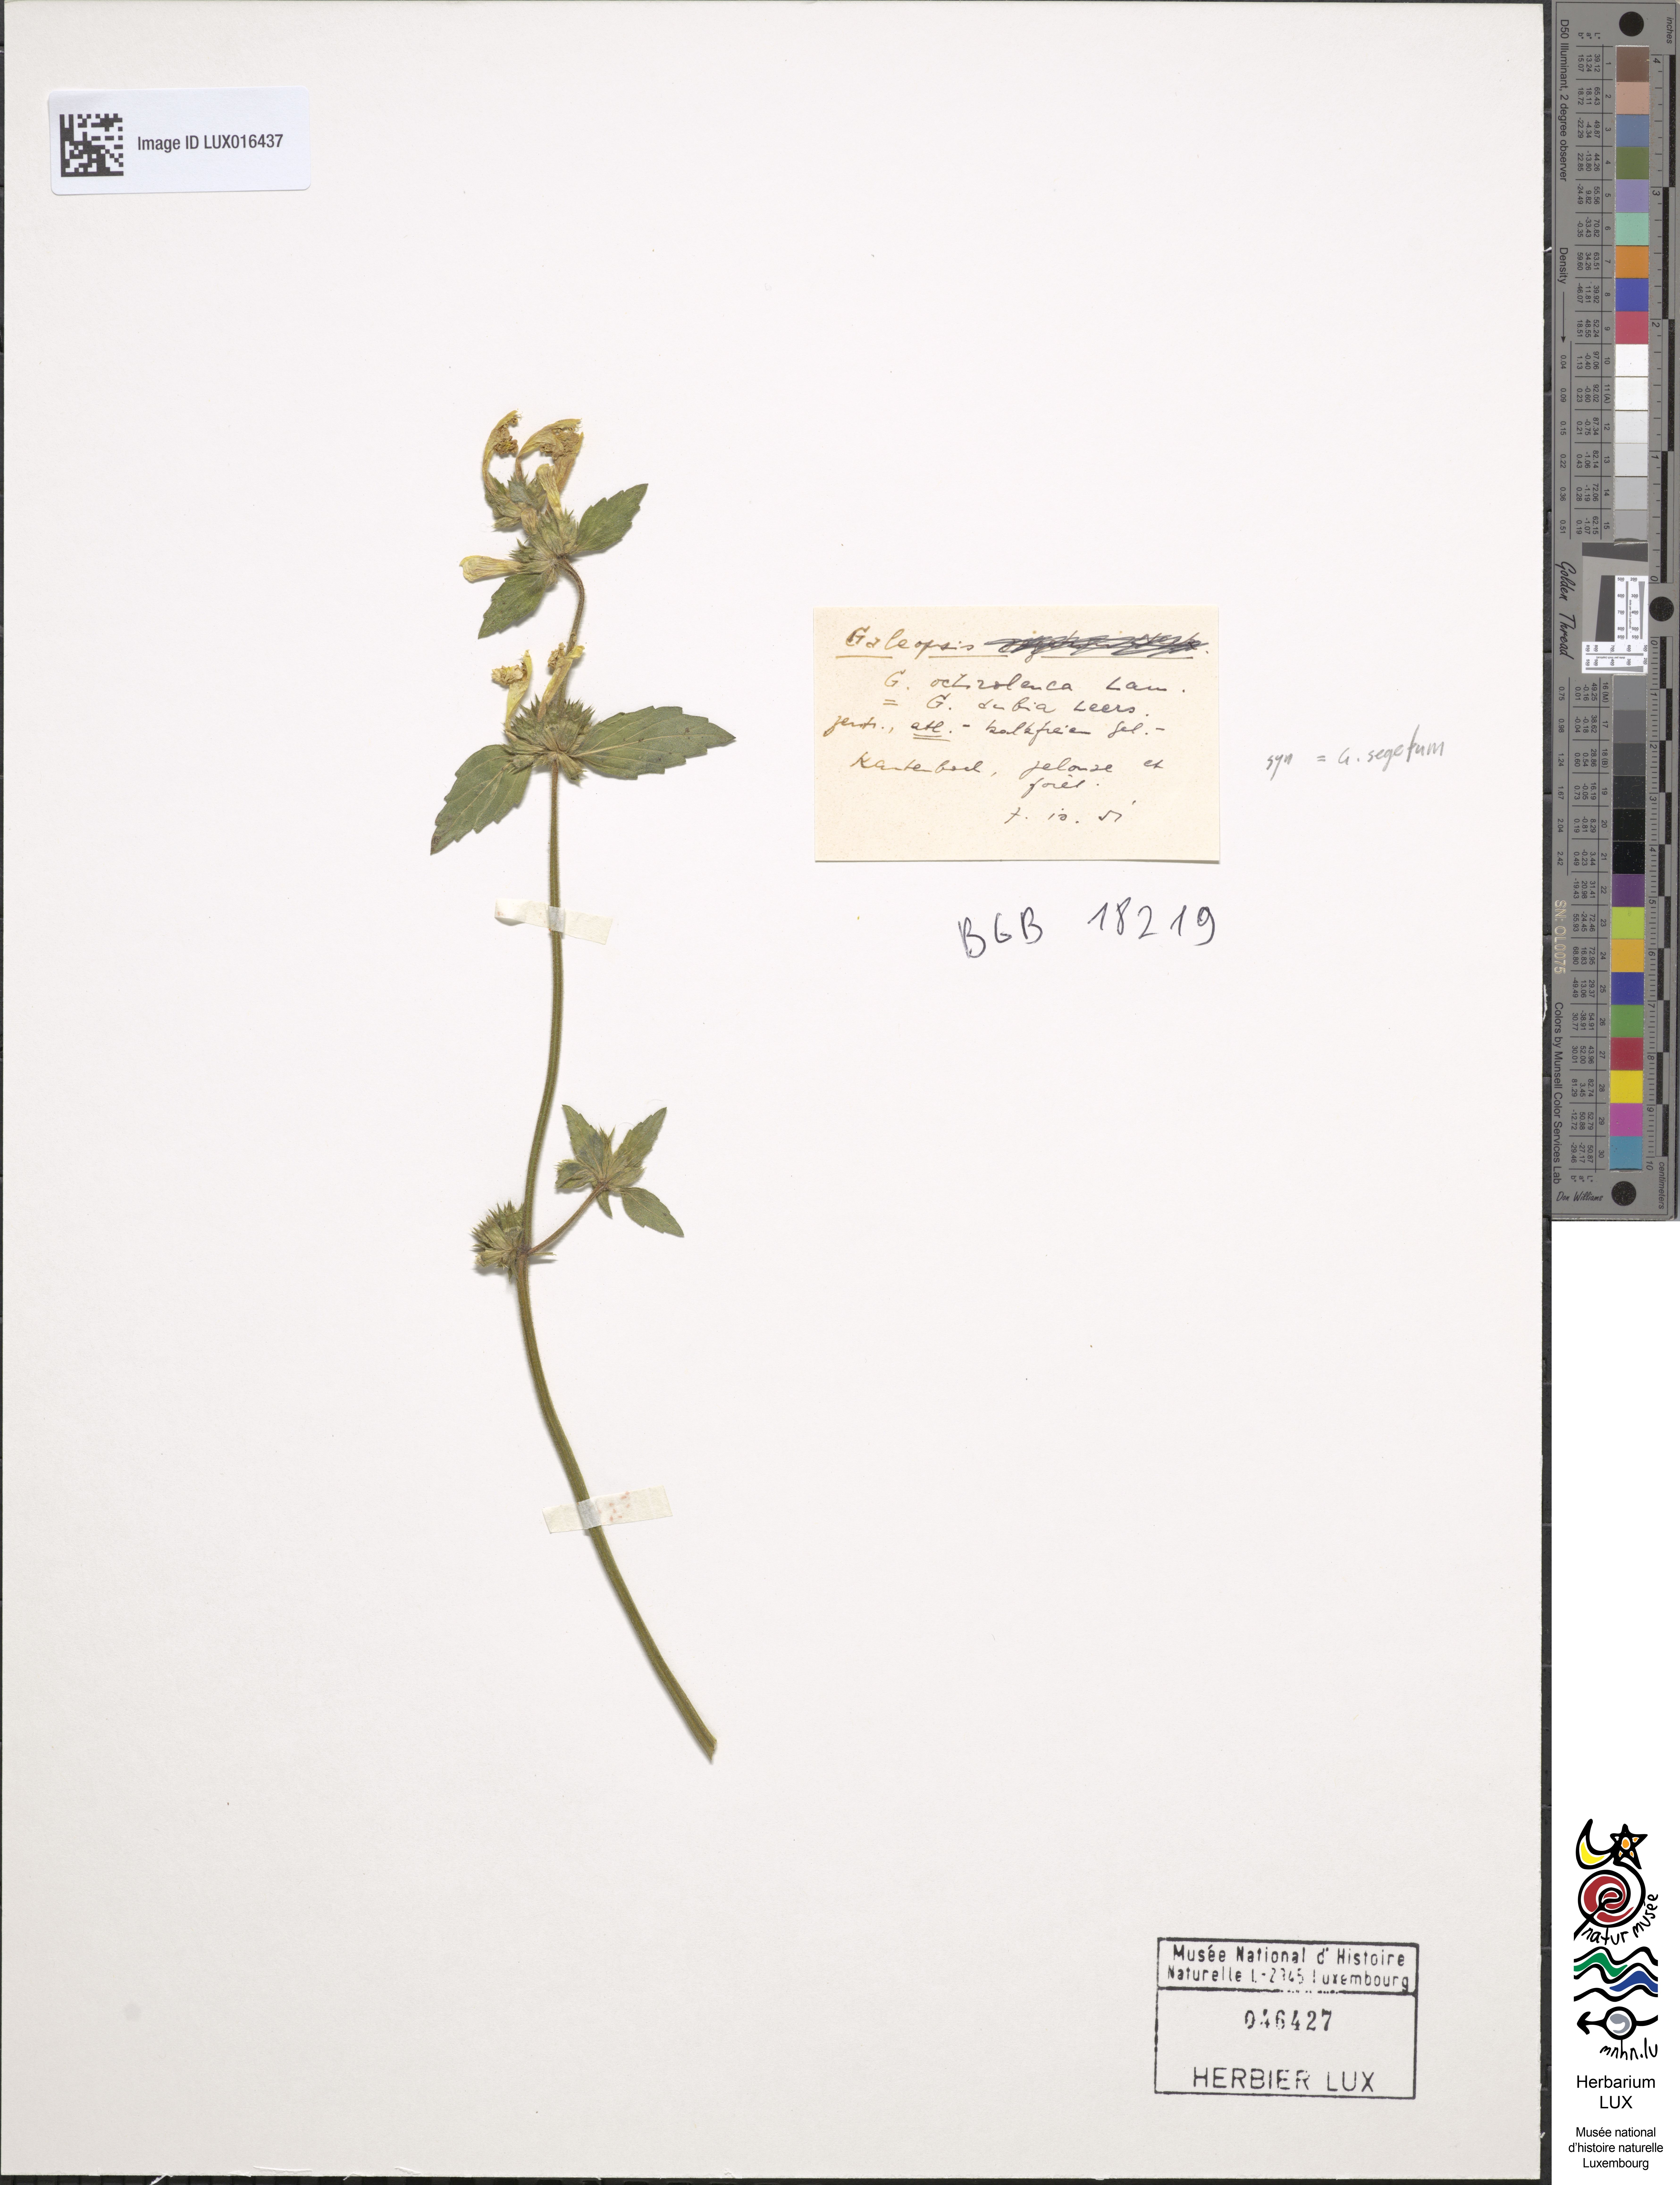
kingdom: Plantae
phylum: Tracheophyta
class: Magnoliopsida
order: Lamiales
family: Lamiaceae
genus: Galeopsis
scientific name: Galeopsis segetum
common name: Downy hemp-nettle
